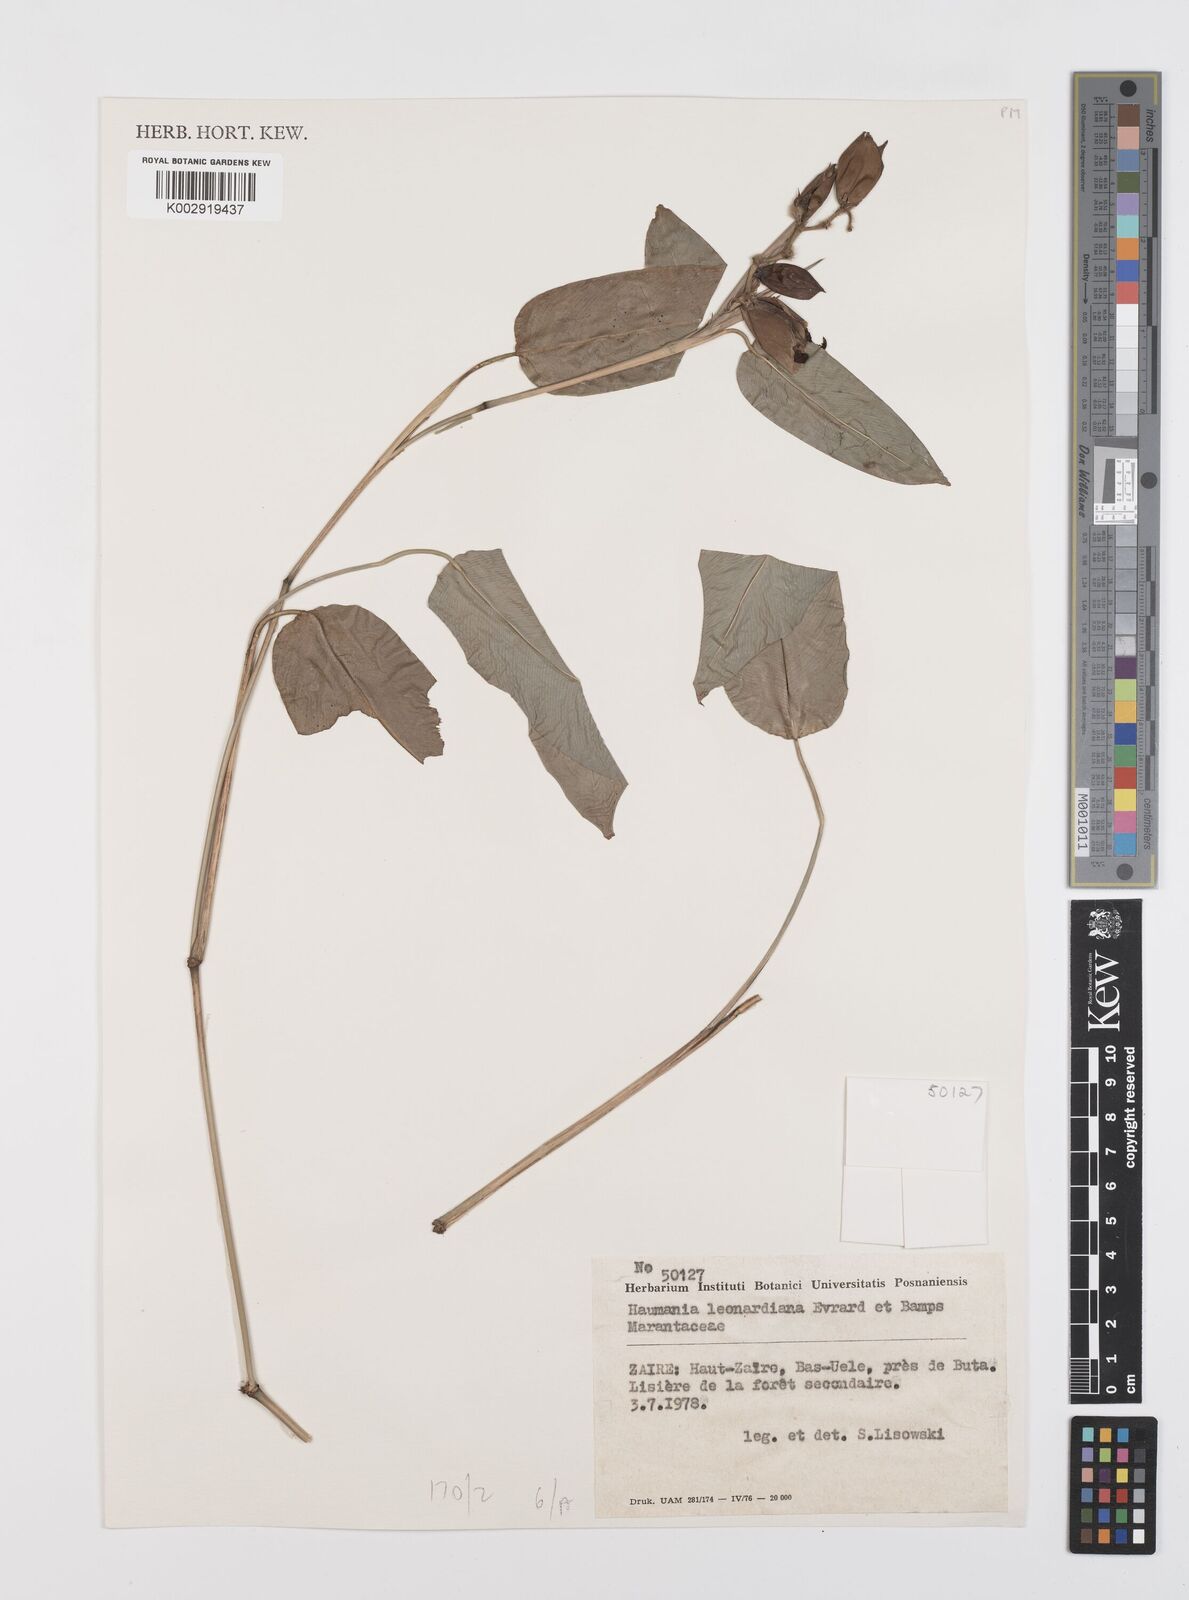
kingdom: Plantae
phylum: Tracheophyta
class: Liliopsida
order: Zingiberales
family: Marantaceae
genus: Haumania
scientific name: Haumania leonardiana
